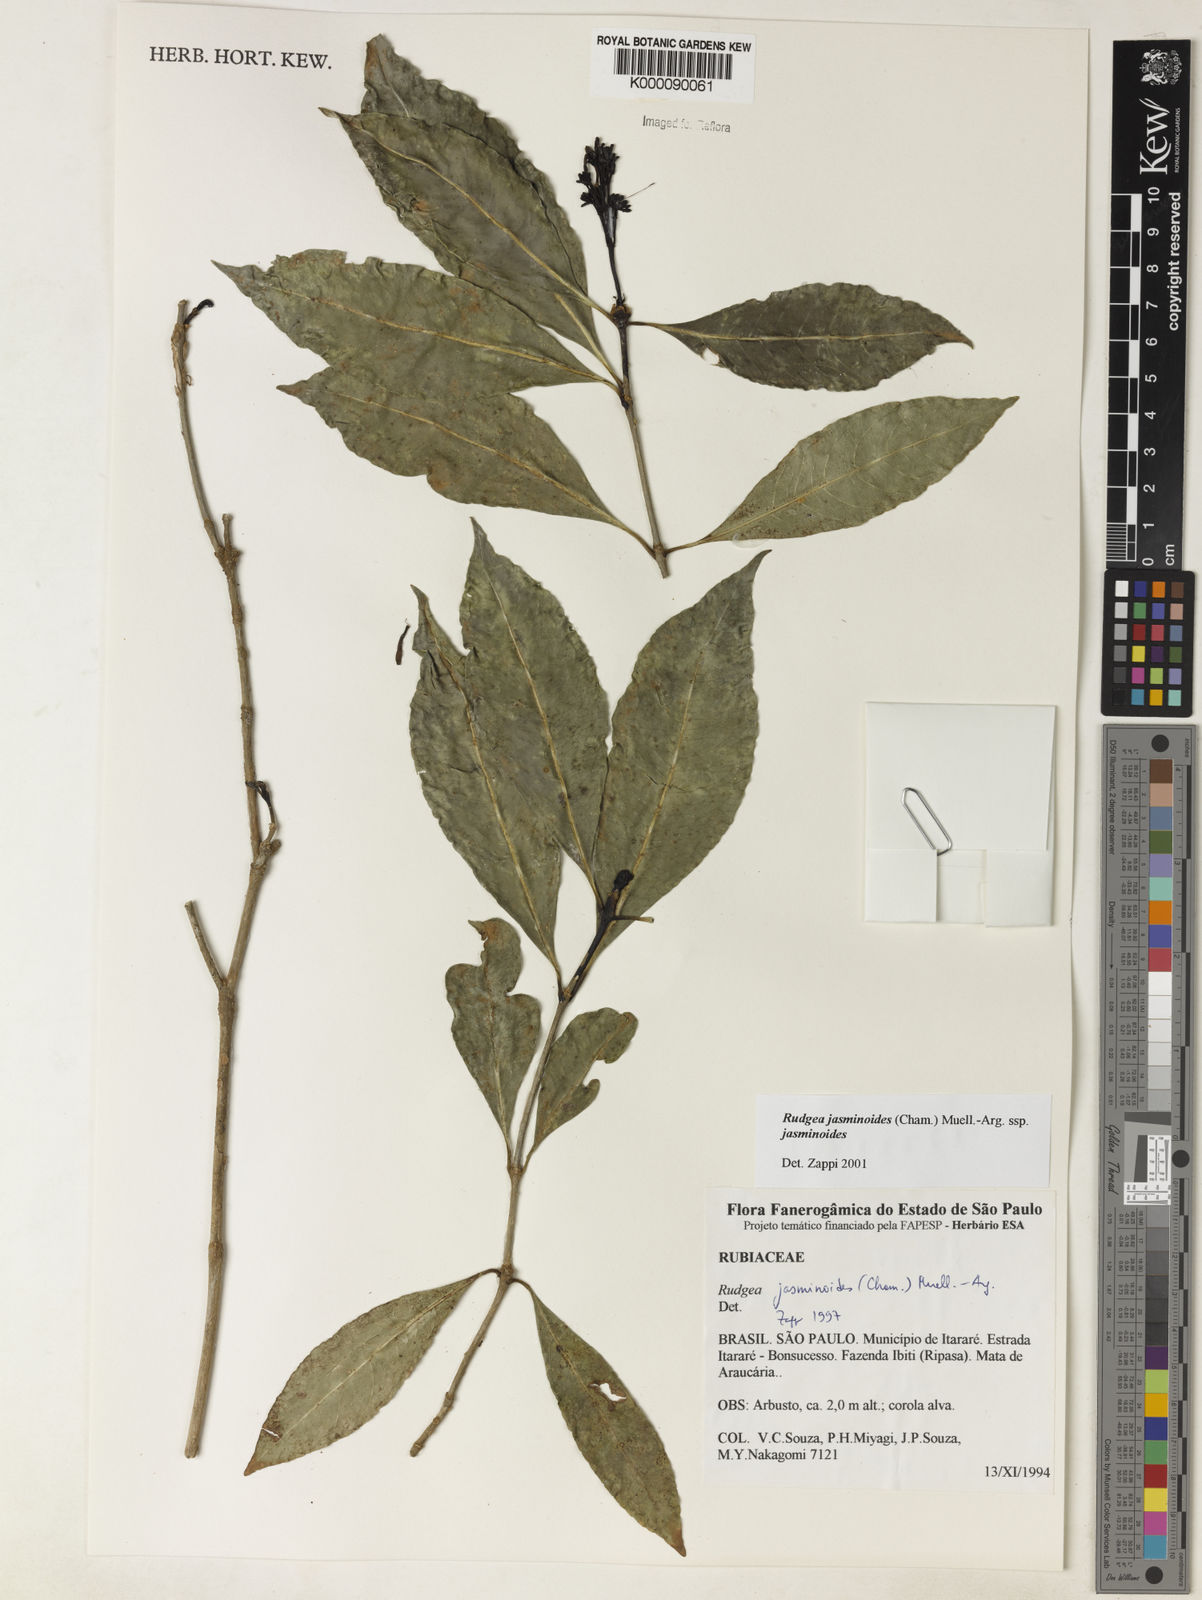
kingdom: Plantae
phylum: Tracheophyta
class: Magnoliopsida
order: Gentianales
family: Rubiaceae
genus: Rudgea
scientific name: Rudgea jasminoides
